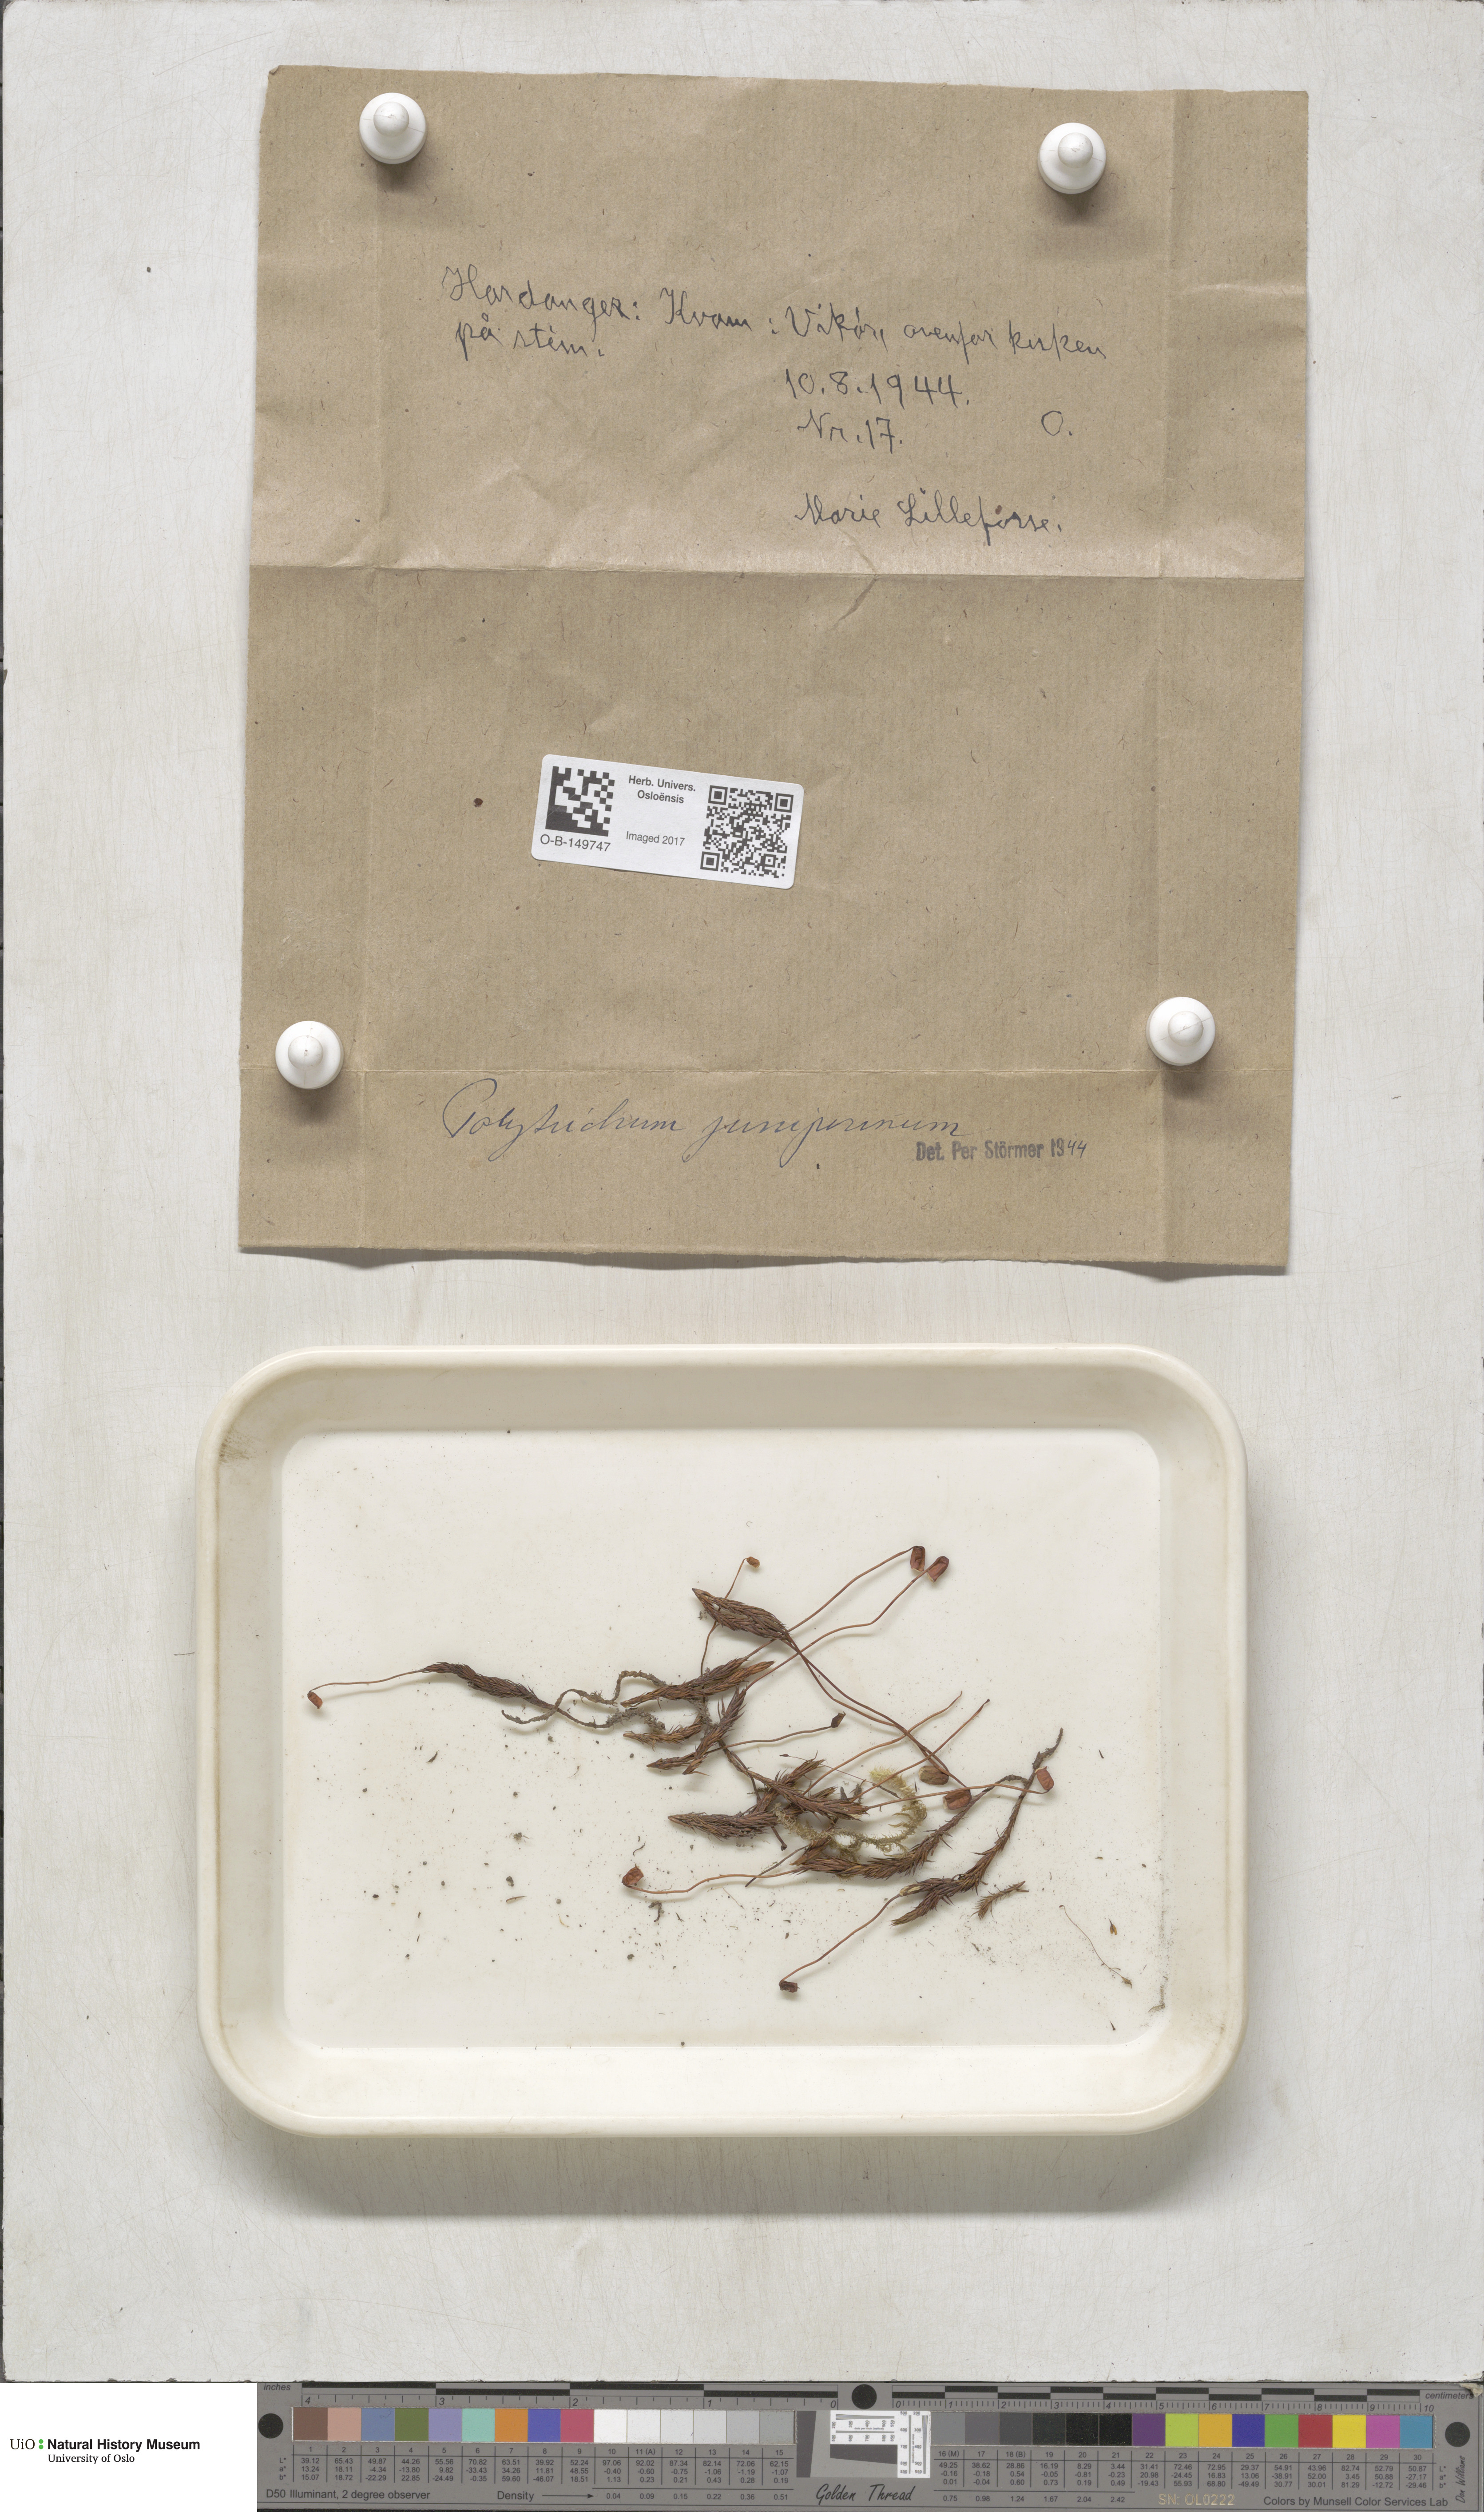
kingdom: Plantae
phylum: Bryophyta
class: Polytrichopsida
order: Polytrichales
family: Polytrichaceae
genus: Polytrichum
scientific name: Polytrichum juniperinum
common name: Juniper haircap moss
